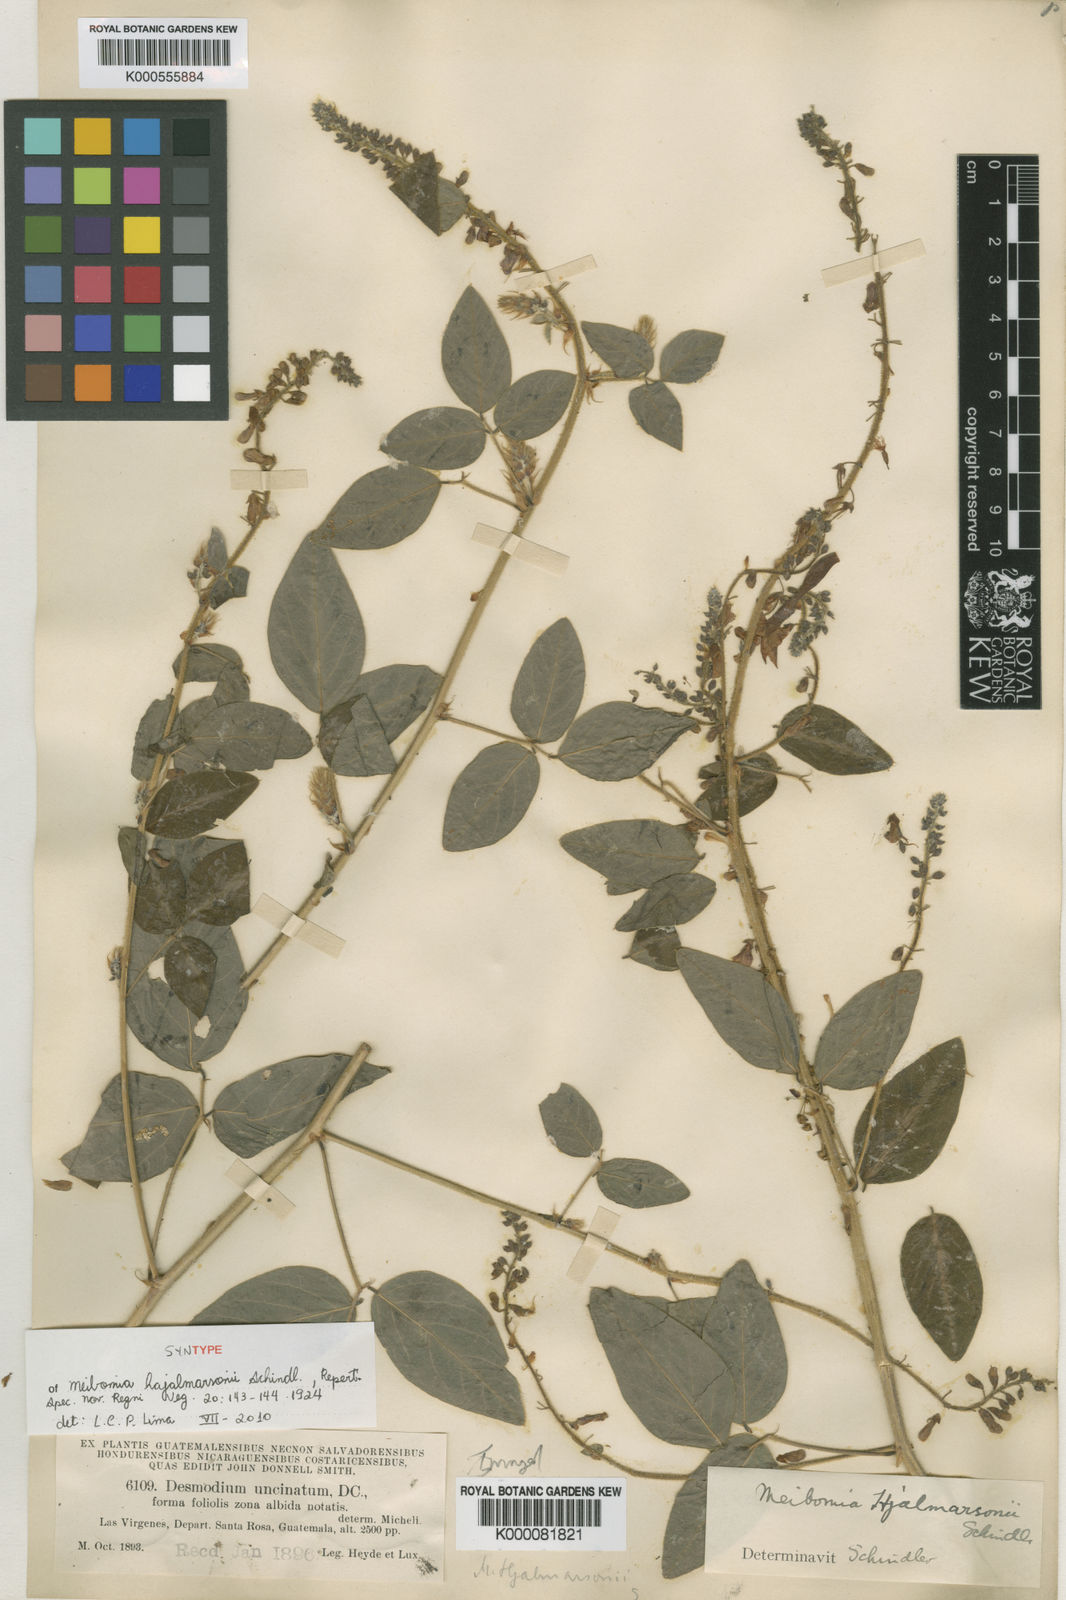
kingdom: Plantae
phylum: Tracheophyta
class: Magnoliopsida
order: Fabales
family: Fabaceae
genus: Desmodium
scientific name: Desmodium uncinatum
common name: Silverleaf desmodium
